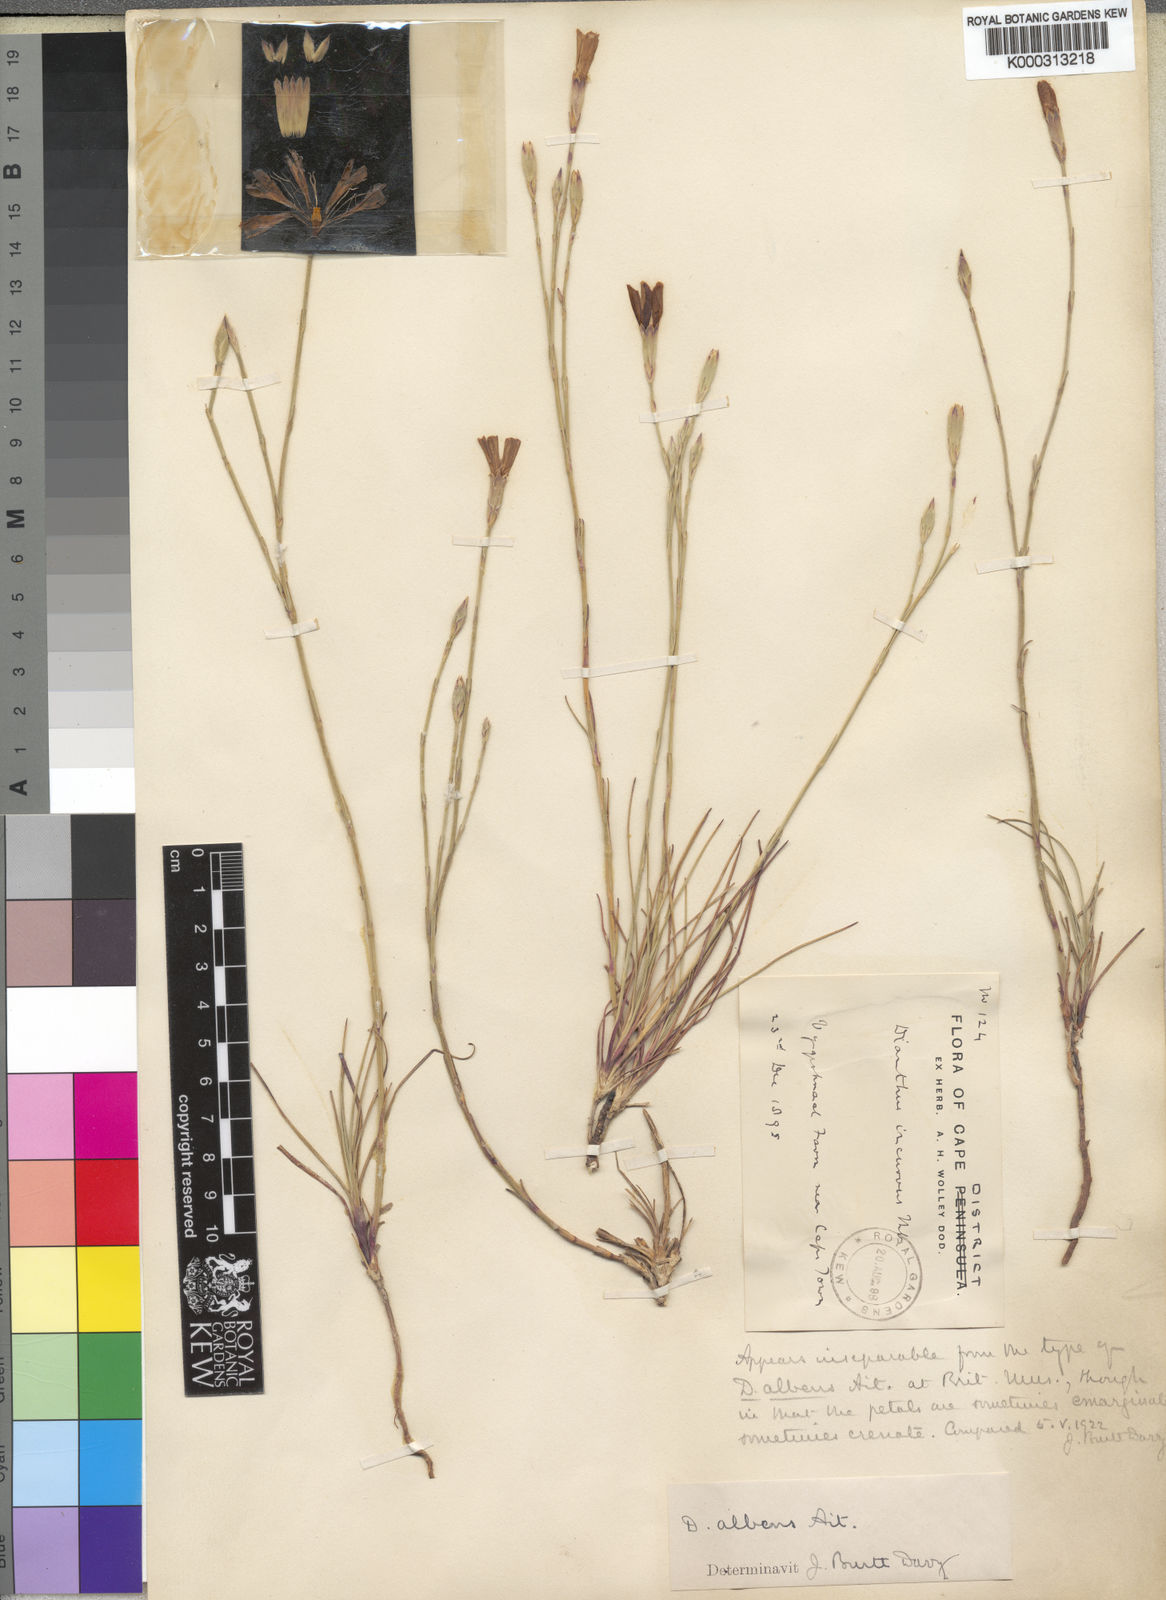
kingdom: Plantae
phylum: Tracheophyta
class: Magnoliopsida
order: Caryophyllales
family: Caryophyllaceae
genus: Dianthus
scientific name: Dianthus albens
